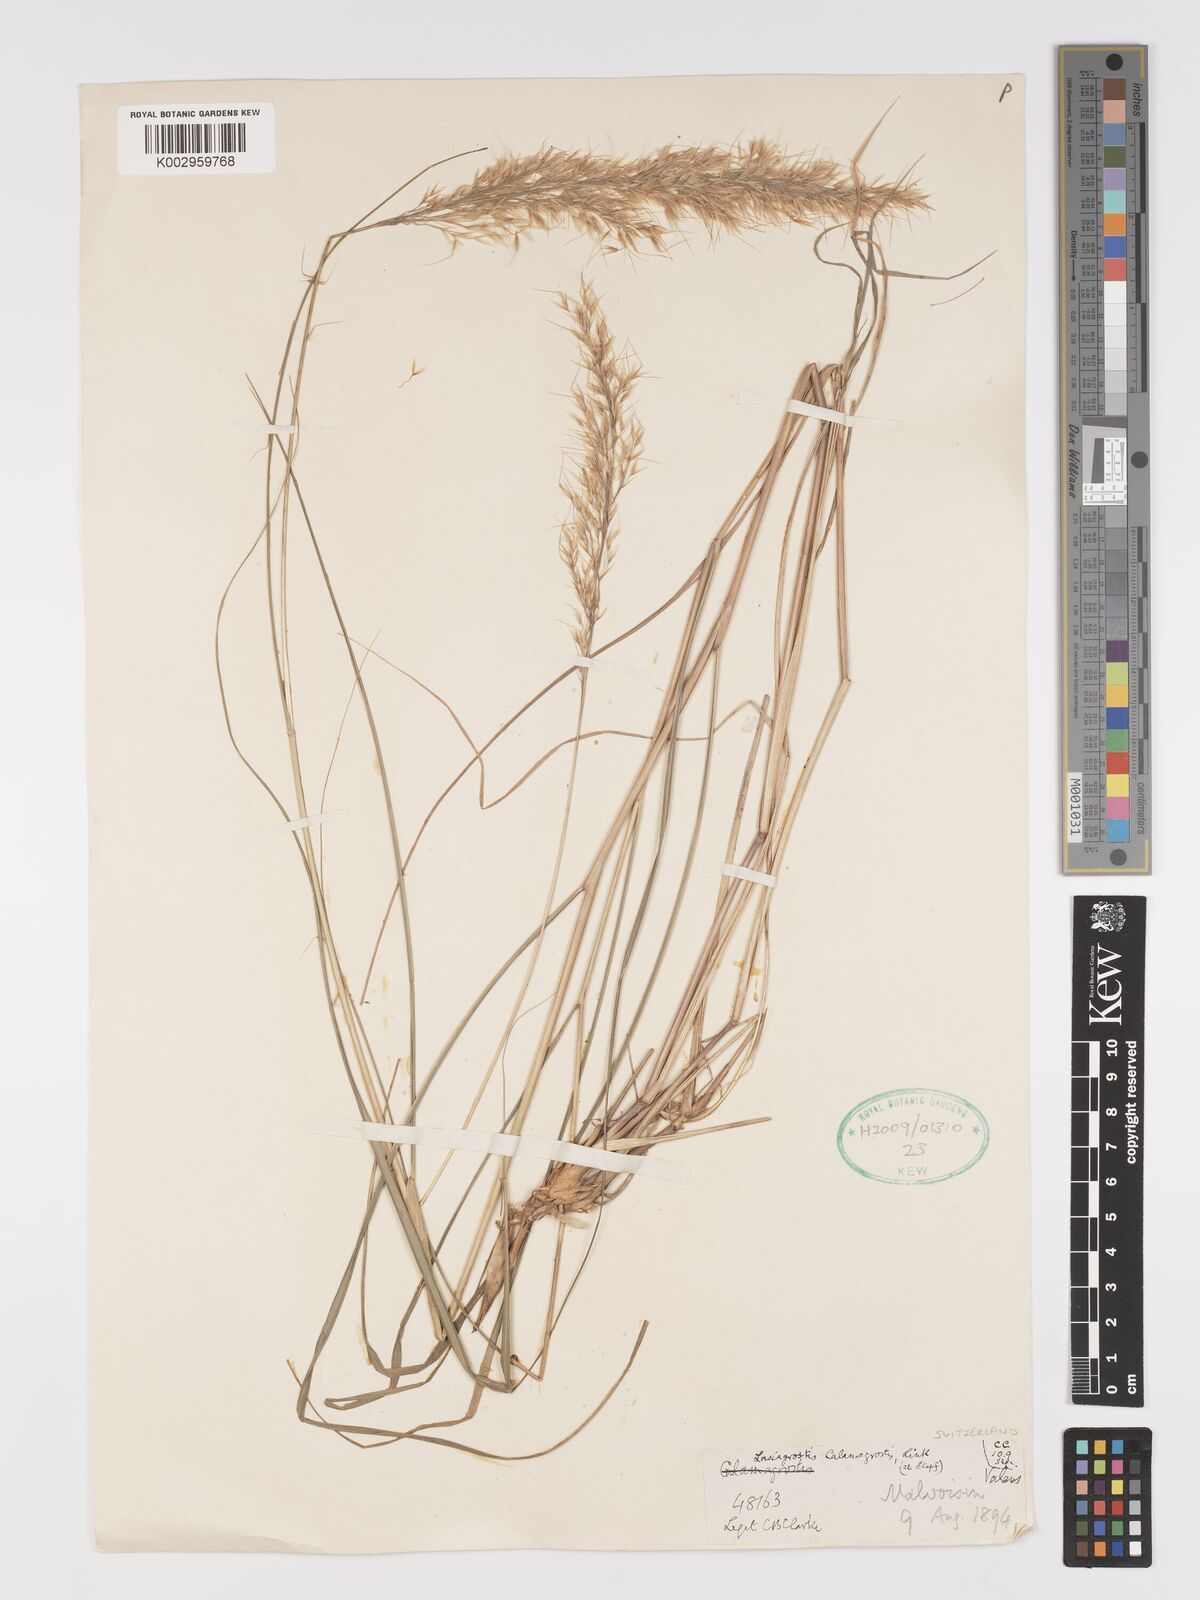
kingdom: Plantae
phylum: Tracheophyta
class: Liliopsida
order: Poales
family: Poaceae
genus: Achnatherum
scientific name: Achnatherum calamagrostis
